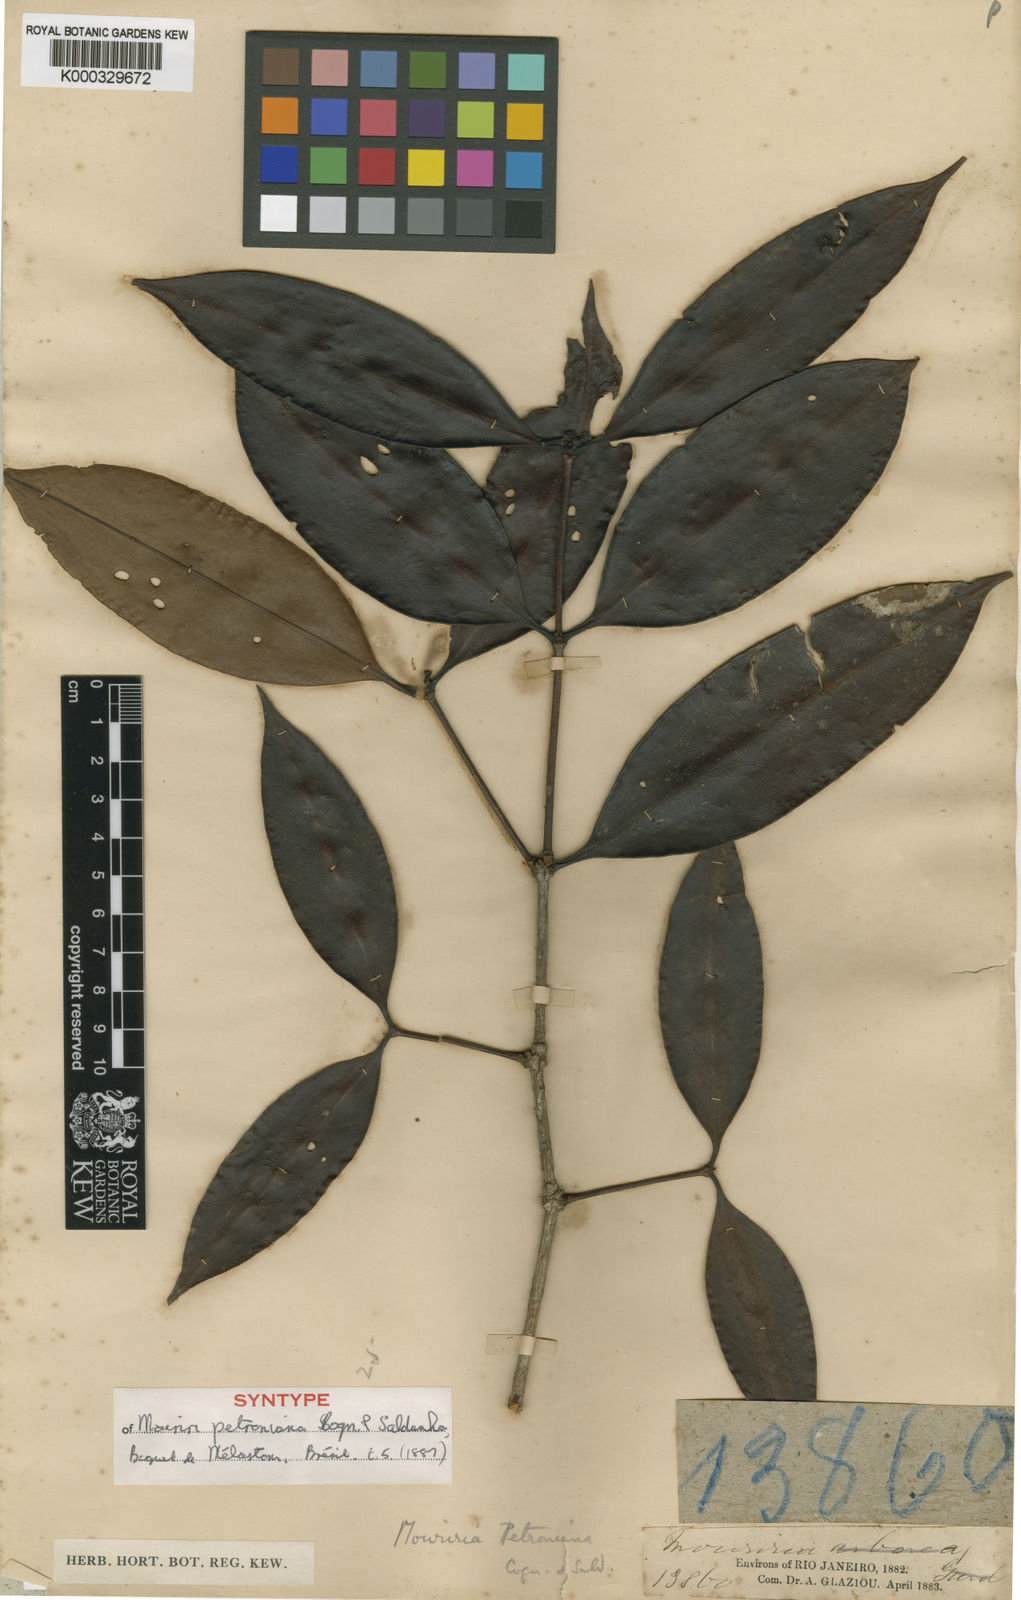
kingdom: Plantae
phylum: Tracheophyta
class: Magnoliopsida
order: Myrtales
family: Melastomataceae
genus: Mouriri
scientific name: Mouriri arborea
